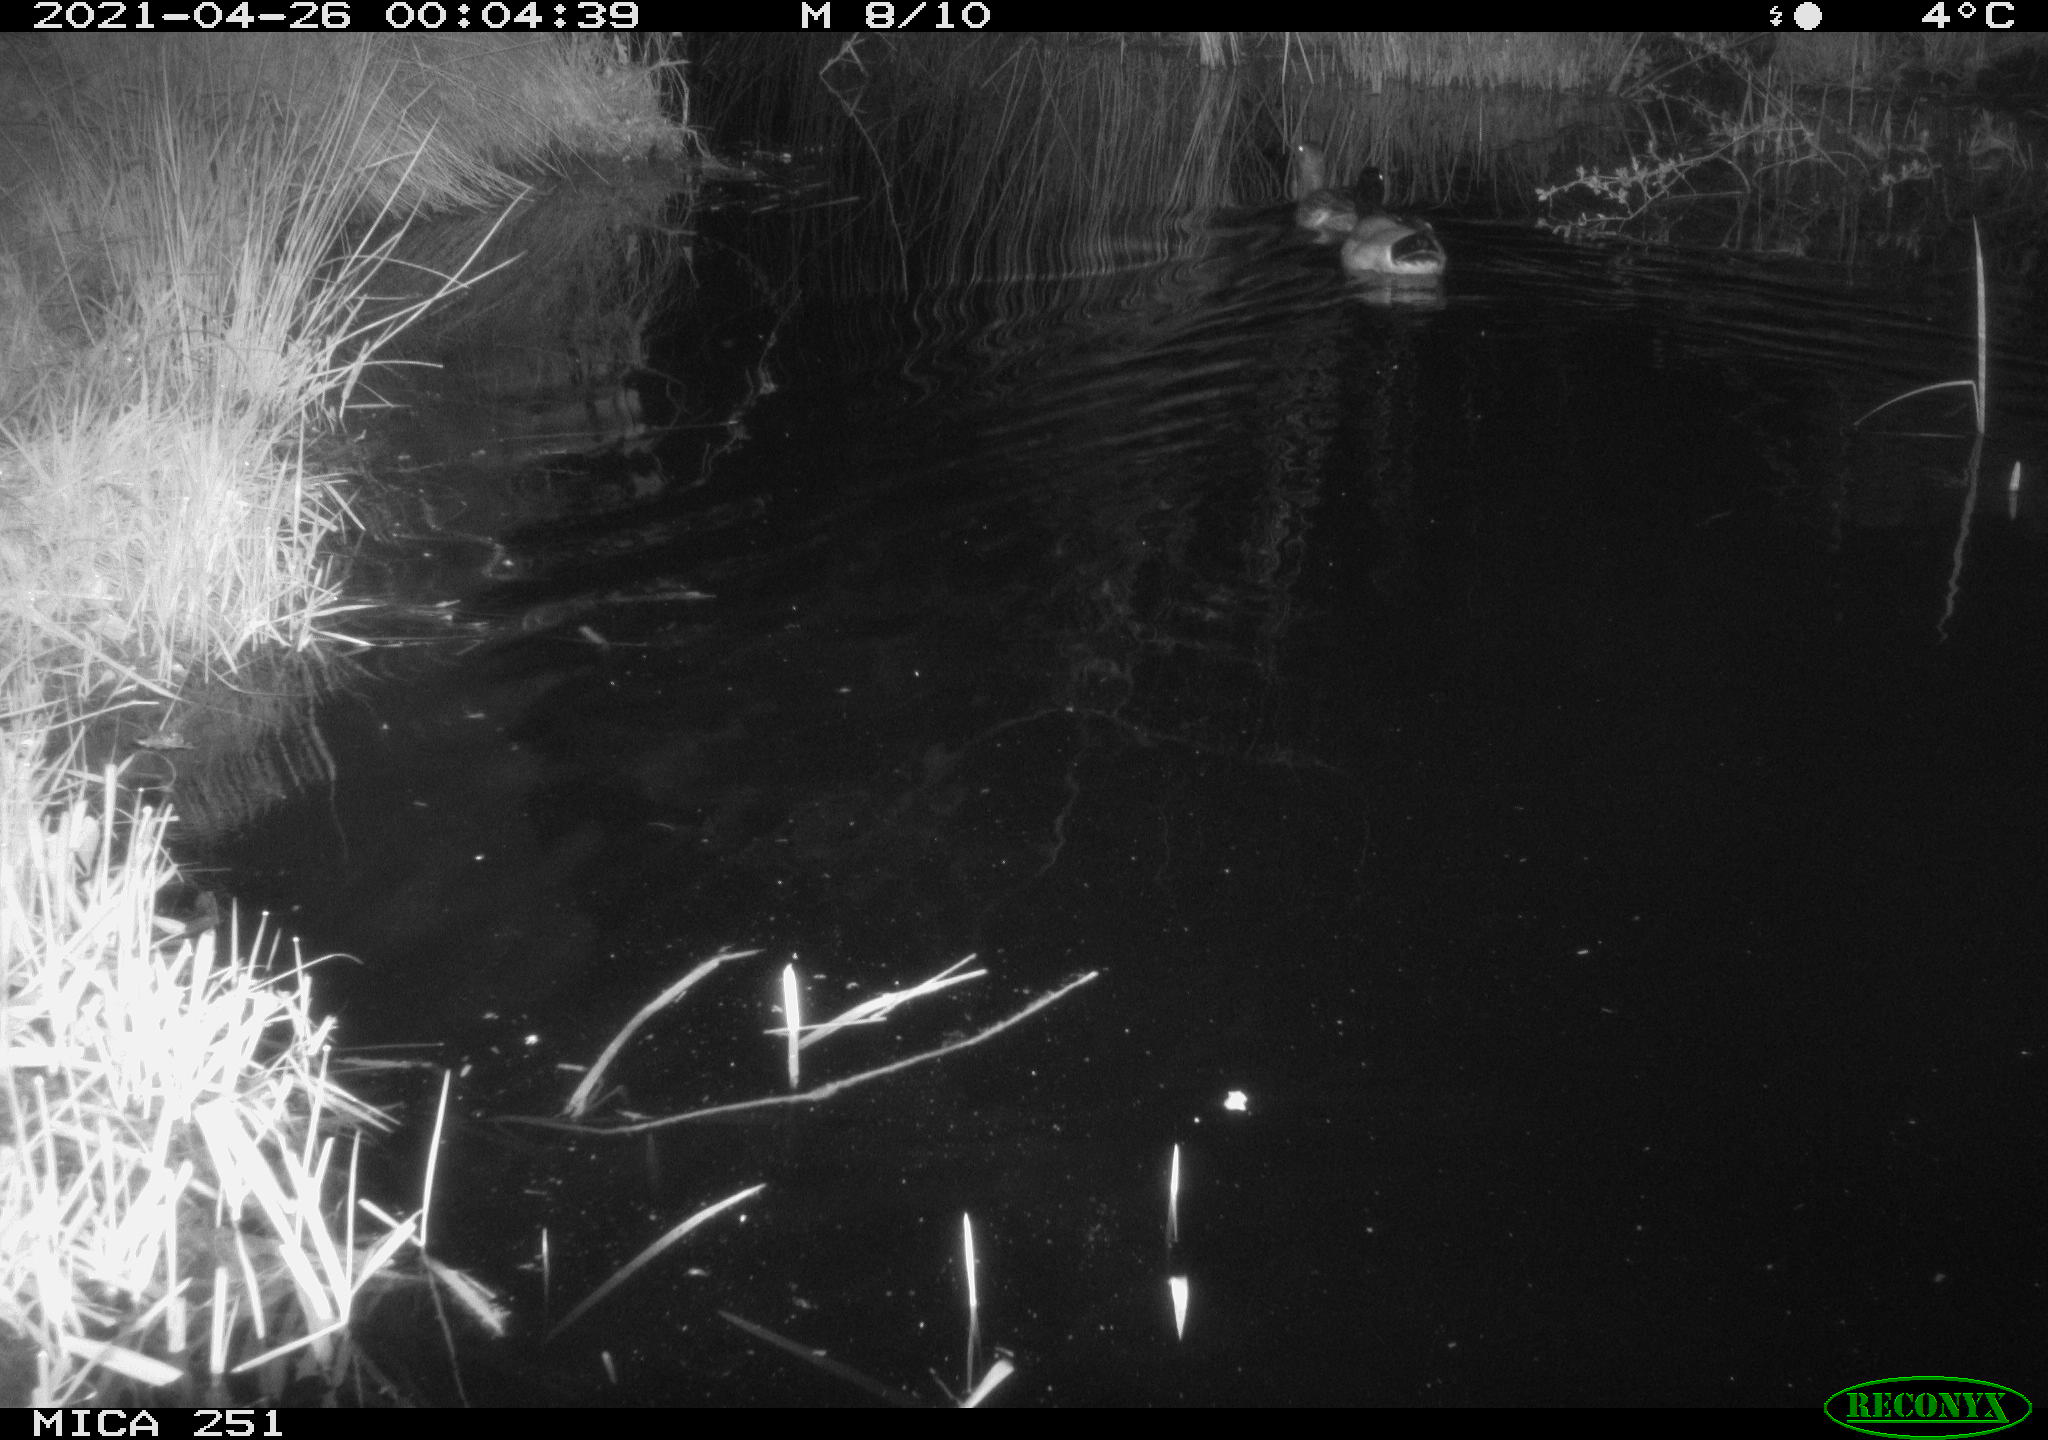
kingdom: Animalia
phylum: Chordata
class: Aves
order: Anseriformes
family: Anatidae
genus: Anas
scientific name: Anas platyrhynchos
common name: Mallard
